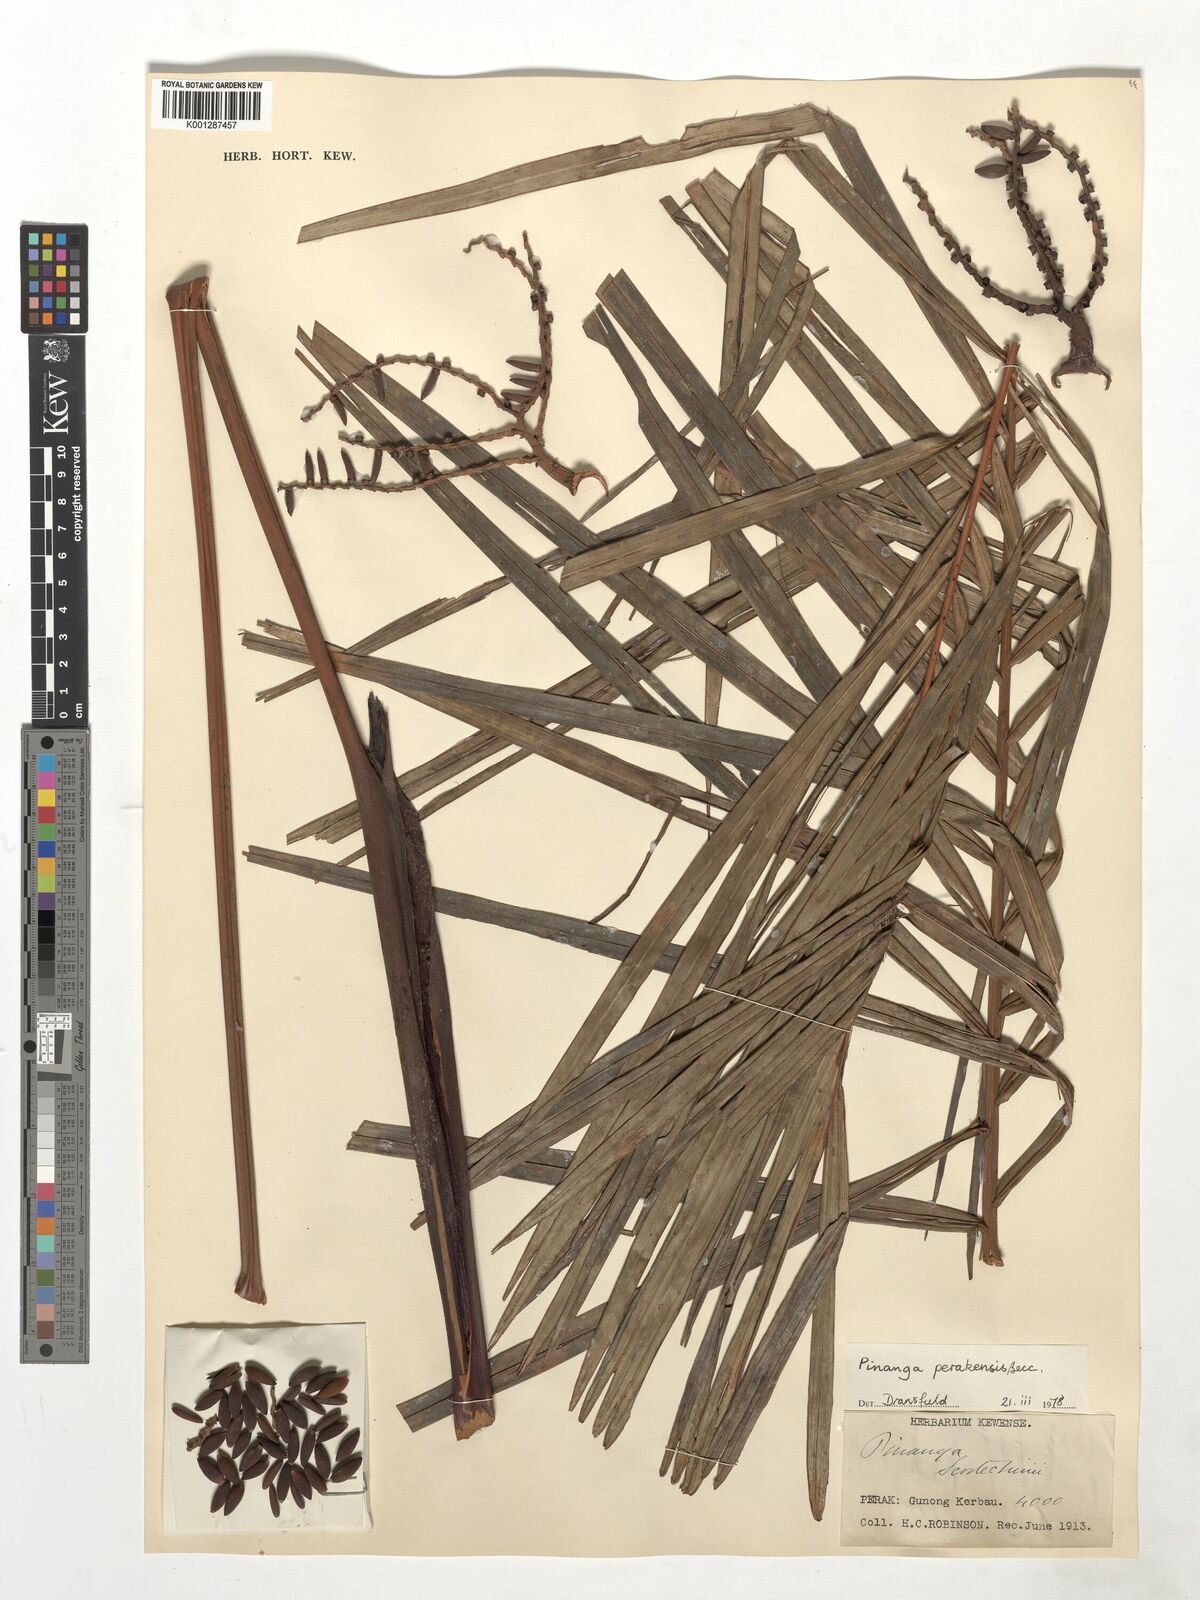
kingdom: Plantae
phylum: Tracheophyta
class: Liliopsida
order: Arecales
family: Arecaceae
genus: Pinanga
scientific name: Pinanga perakensis
